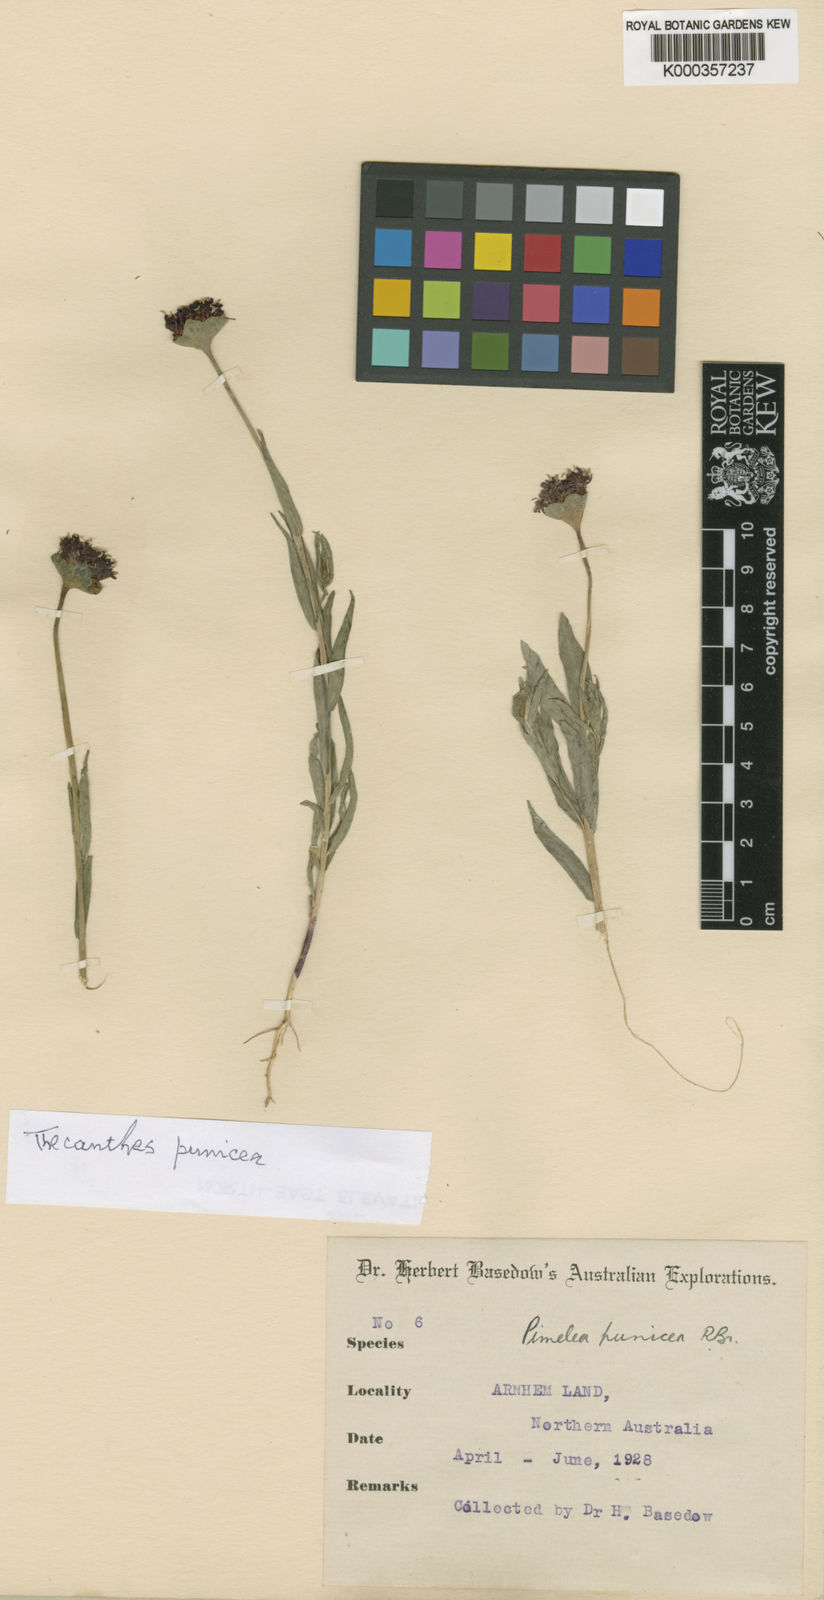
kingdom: Plantae
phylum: Tracheophyta
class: Magnoliopsida
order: Malvales
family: Thymelaeaceae
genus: Pimelea
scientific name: Pimelea punicea
